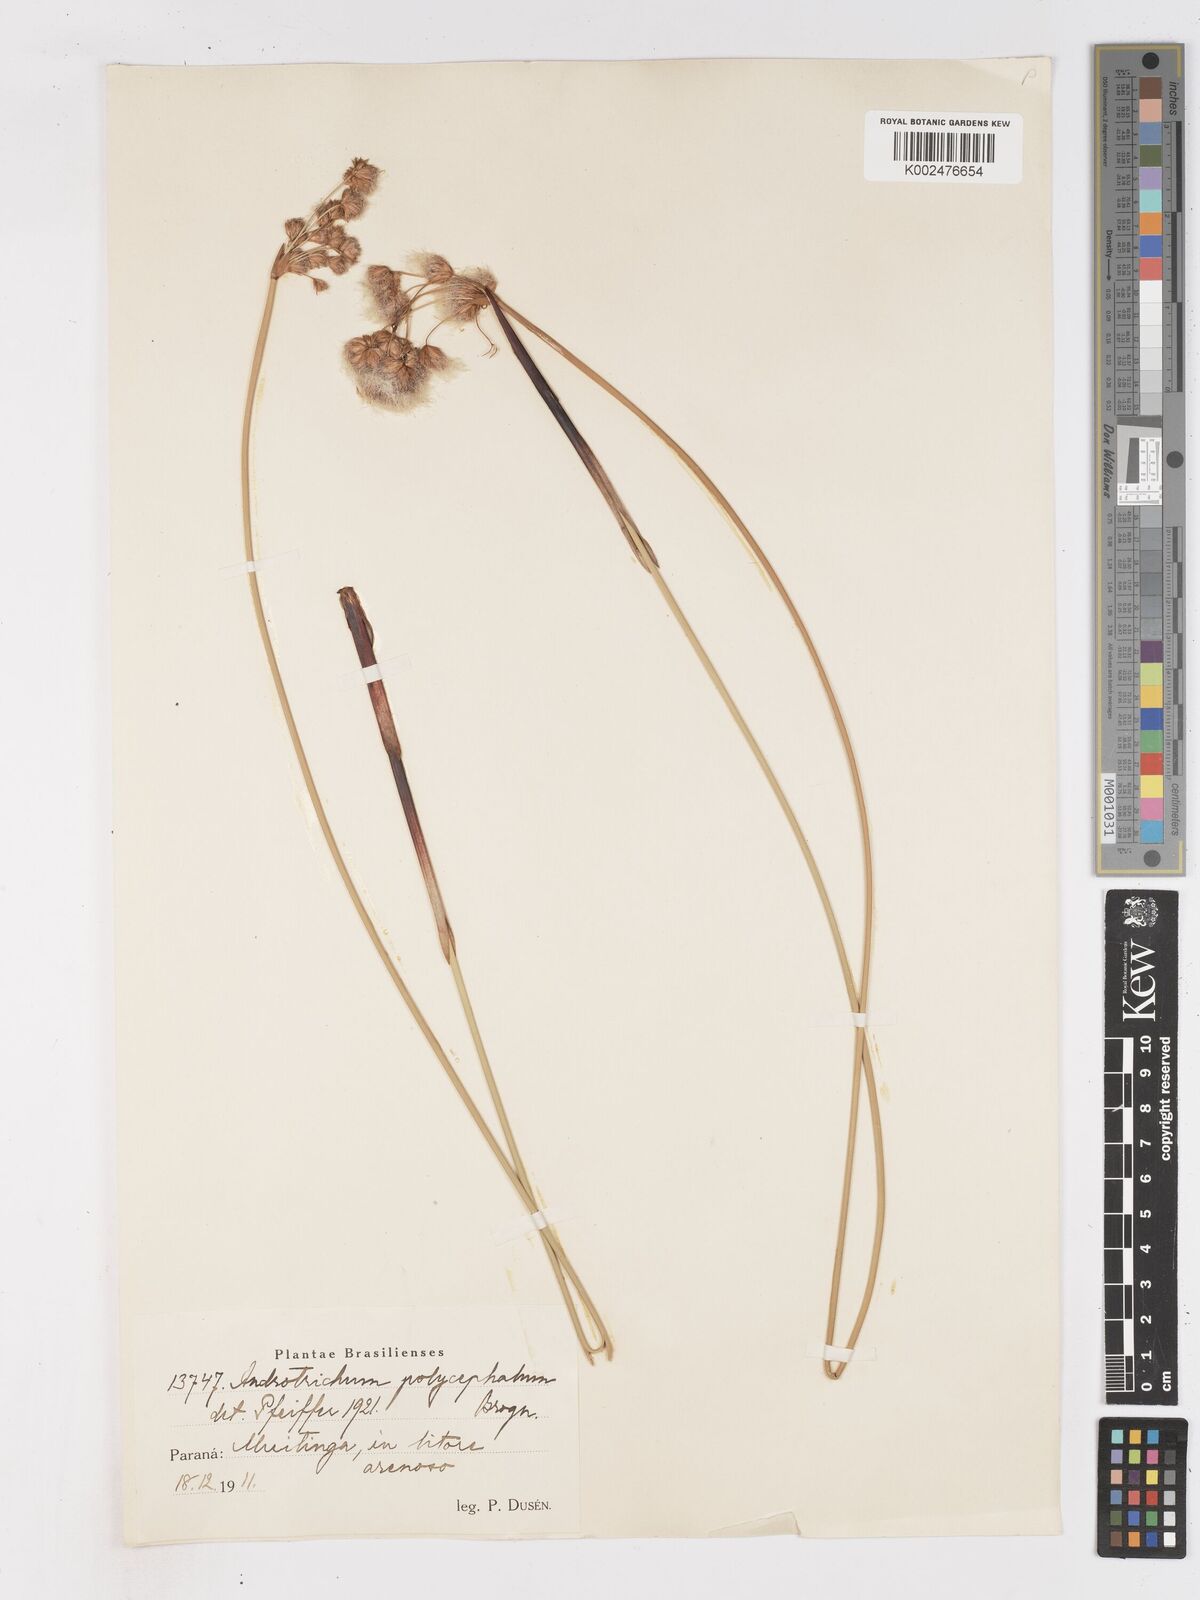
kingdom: Plantae
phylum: Tracheophyta
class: Liliopsida
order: Poales
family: Cyperaceae
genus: Cyperus
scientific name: Cyperus
